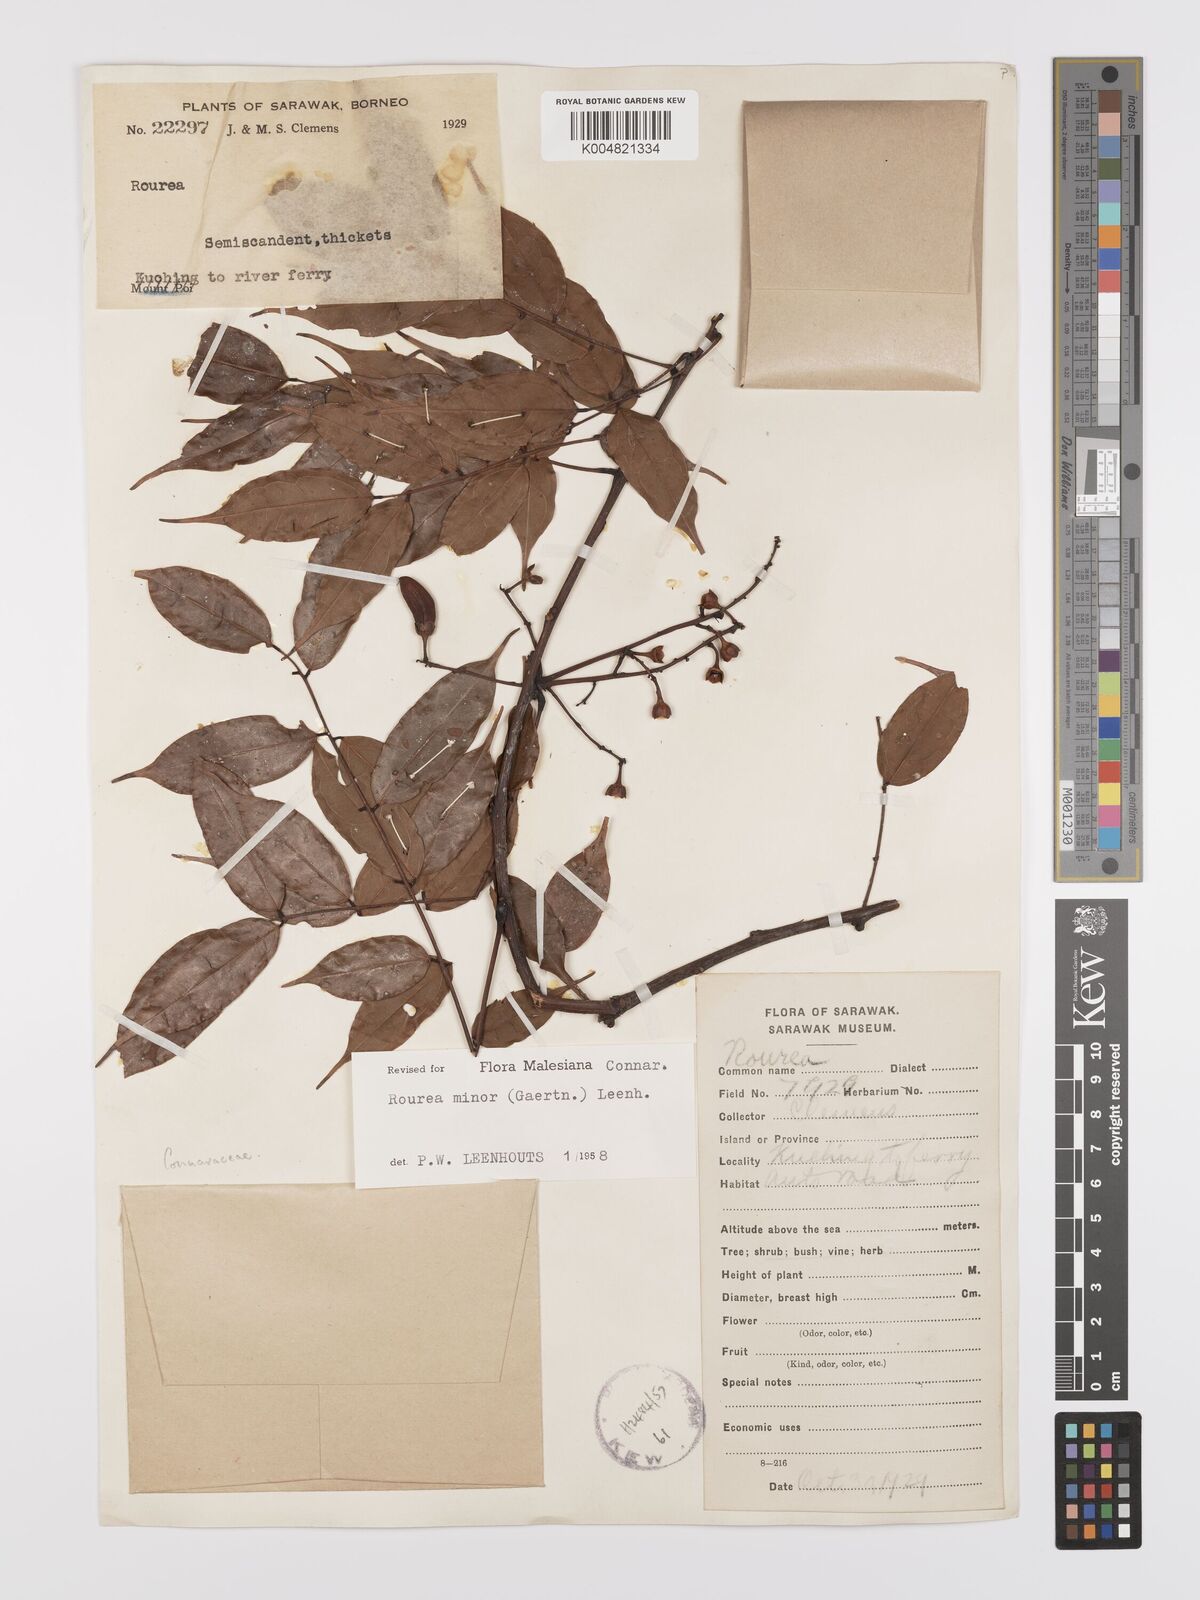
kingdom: Plantae
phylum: Tracheophyta
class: Magnoliopsida
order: Oxalidales
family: Connaraceae
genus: Rourea
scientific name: Rourea minor
